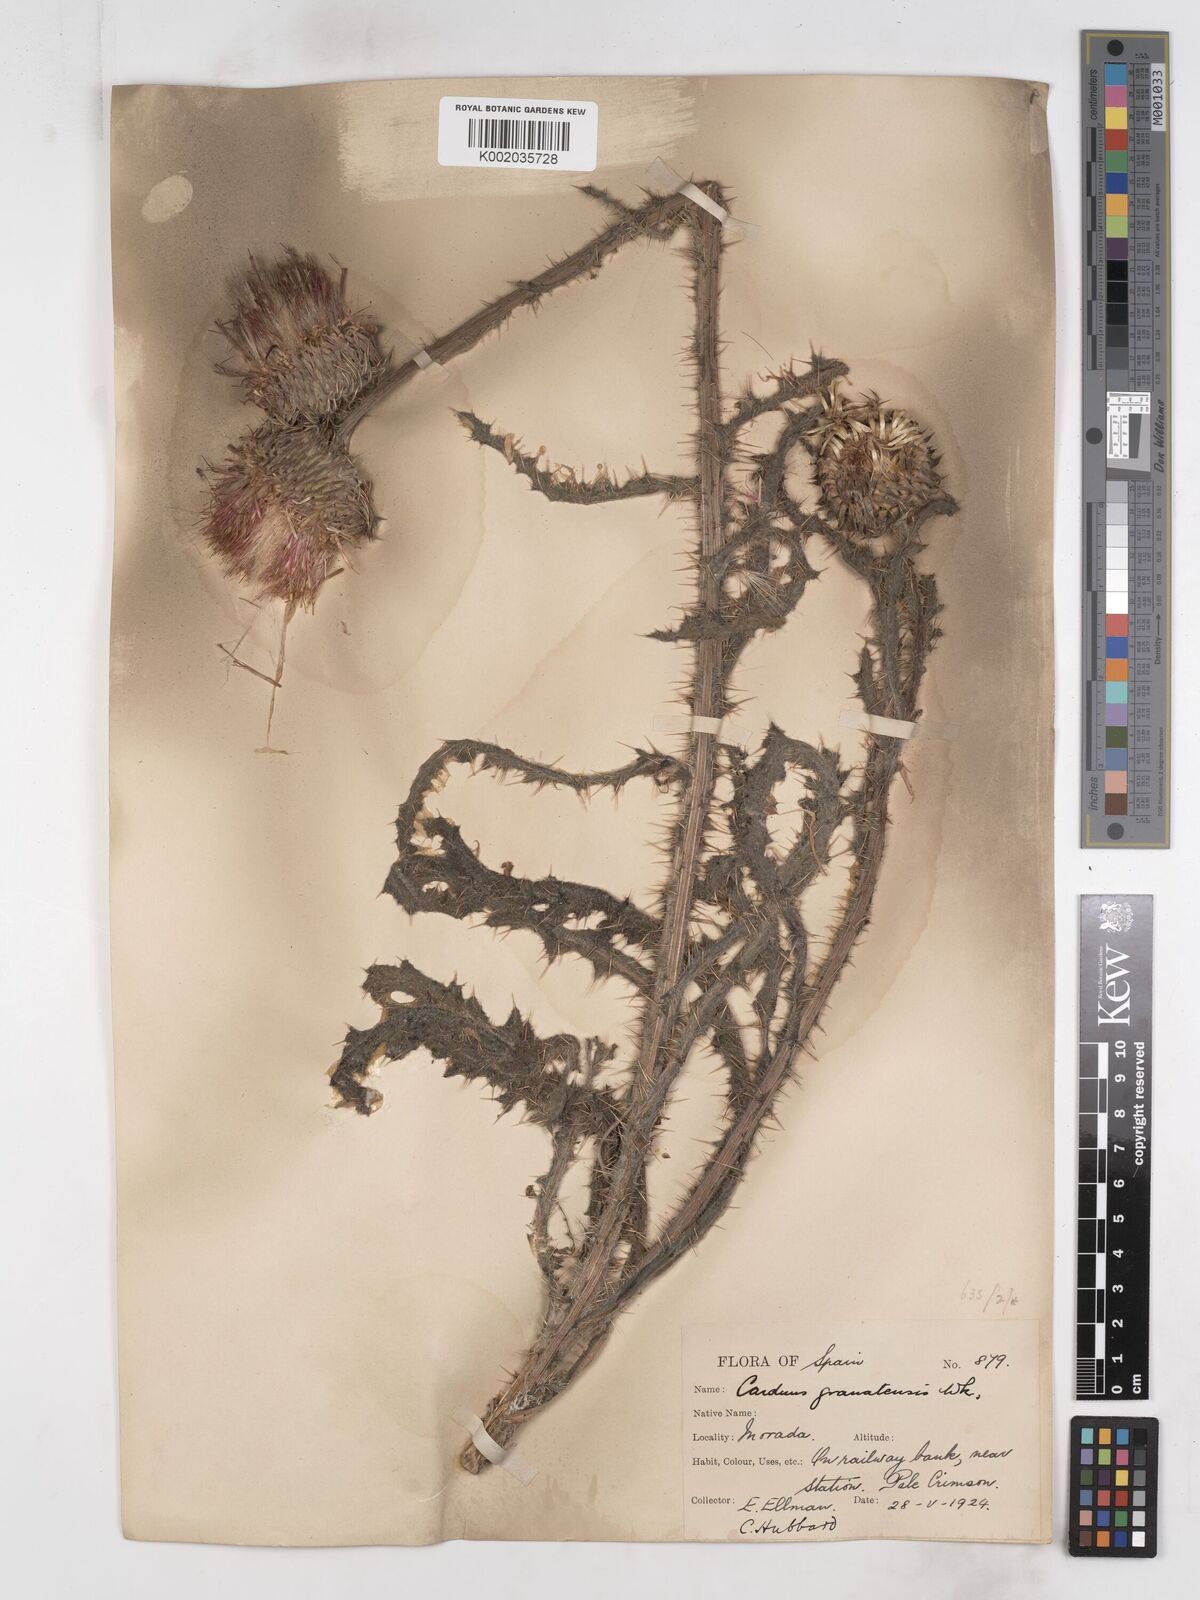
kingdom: Plantae
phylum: Tracheophyta
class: Magnoliopsida
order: Asterales
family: Asteraceae
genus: Carduus
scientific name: Carduus platypus
